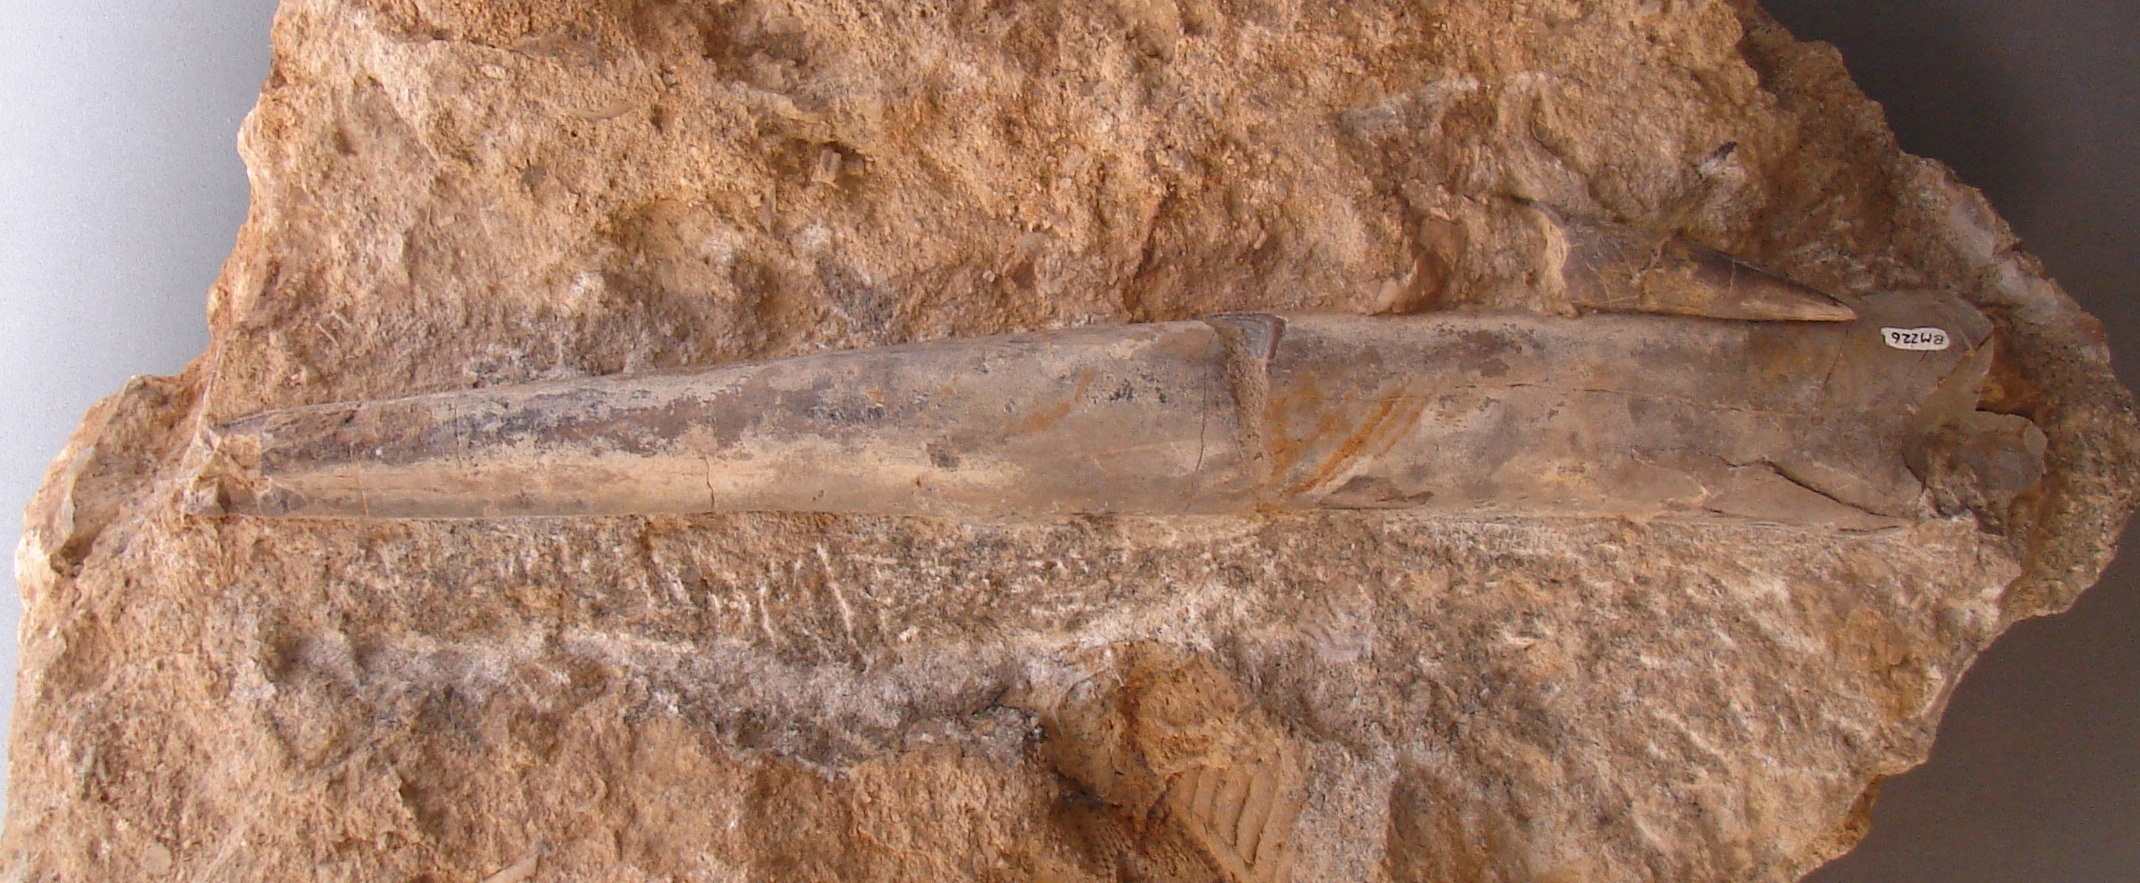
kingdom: Animalia
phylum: Mollusca
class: Cephalopoda
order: Belemnitida
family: Megateuthididae
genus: Megateuthis
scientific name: Megateuthis
